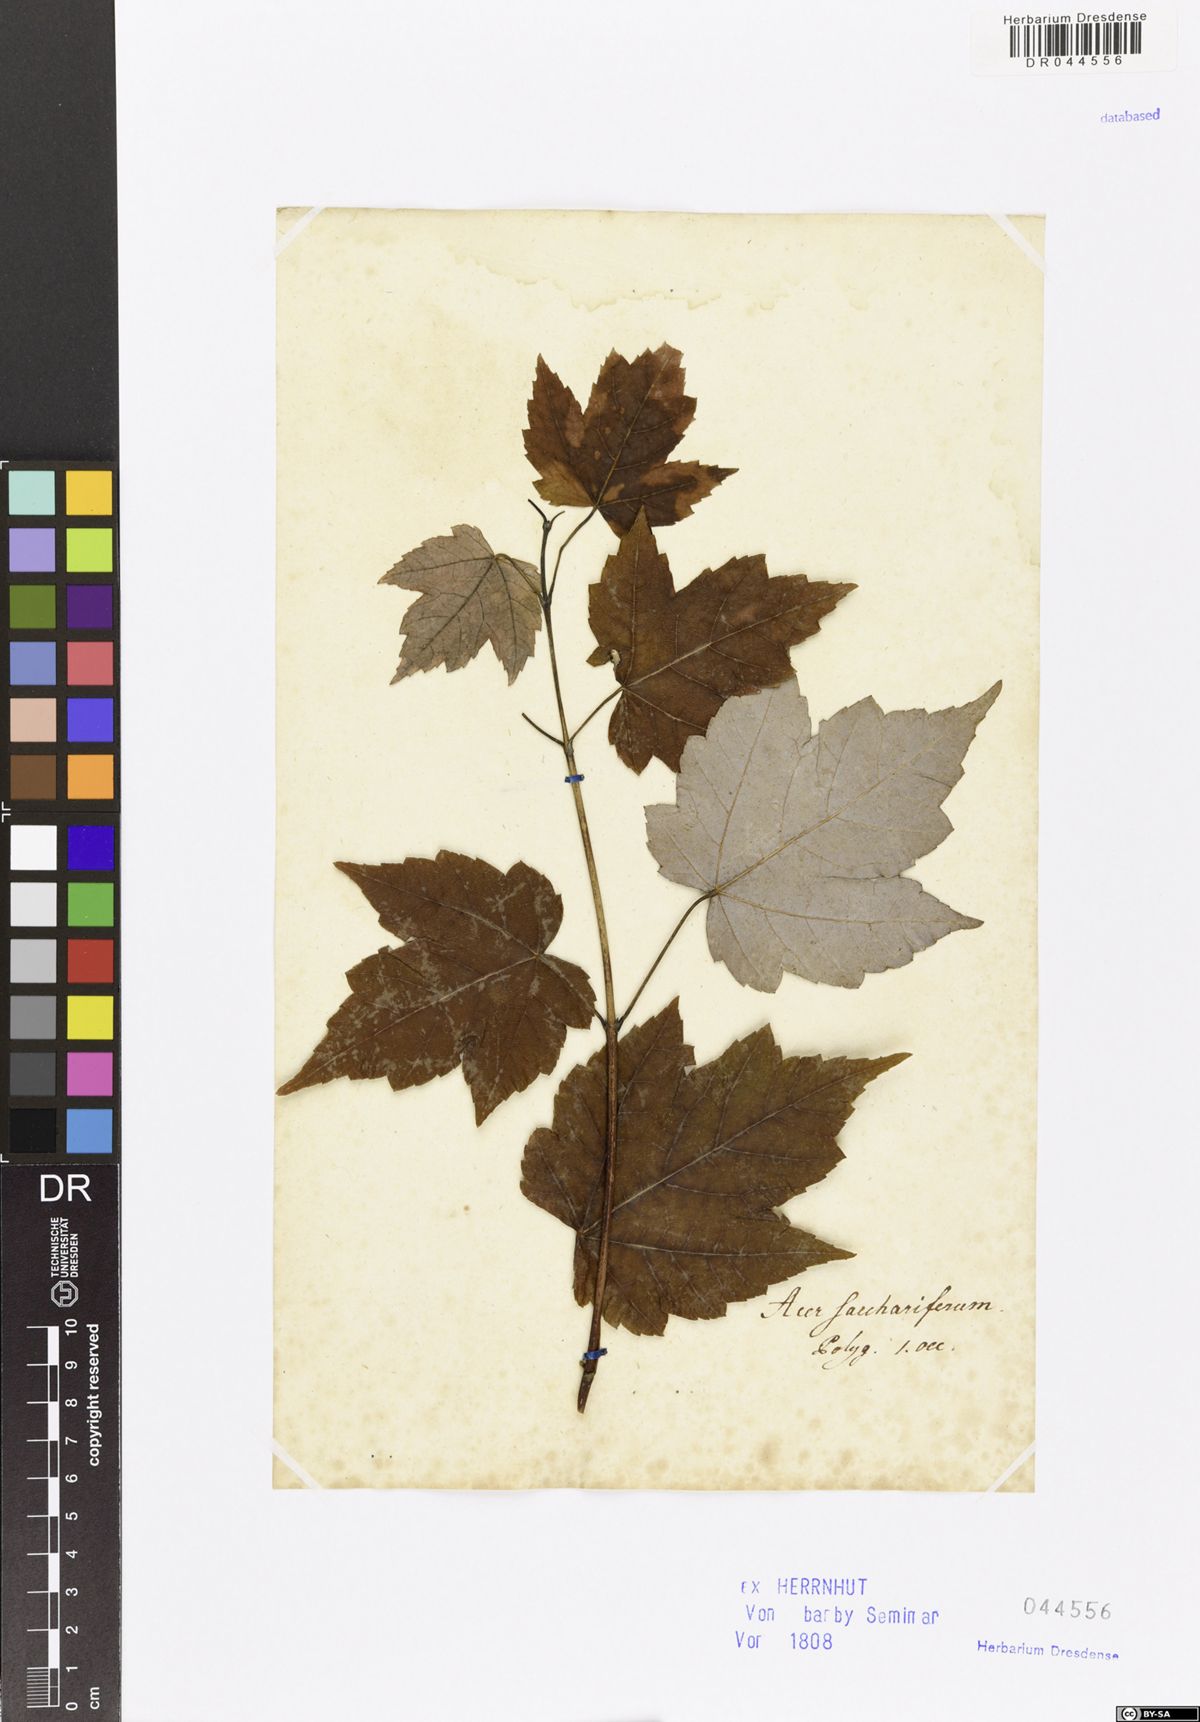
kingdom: Plantae
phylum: Tracheophyta
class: Magnoliopsida
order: Sapindales
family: Sapindaceae
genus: Acer
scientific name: Acer saccharinum
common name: Silver maple
